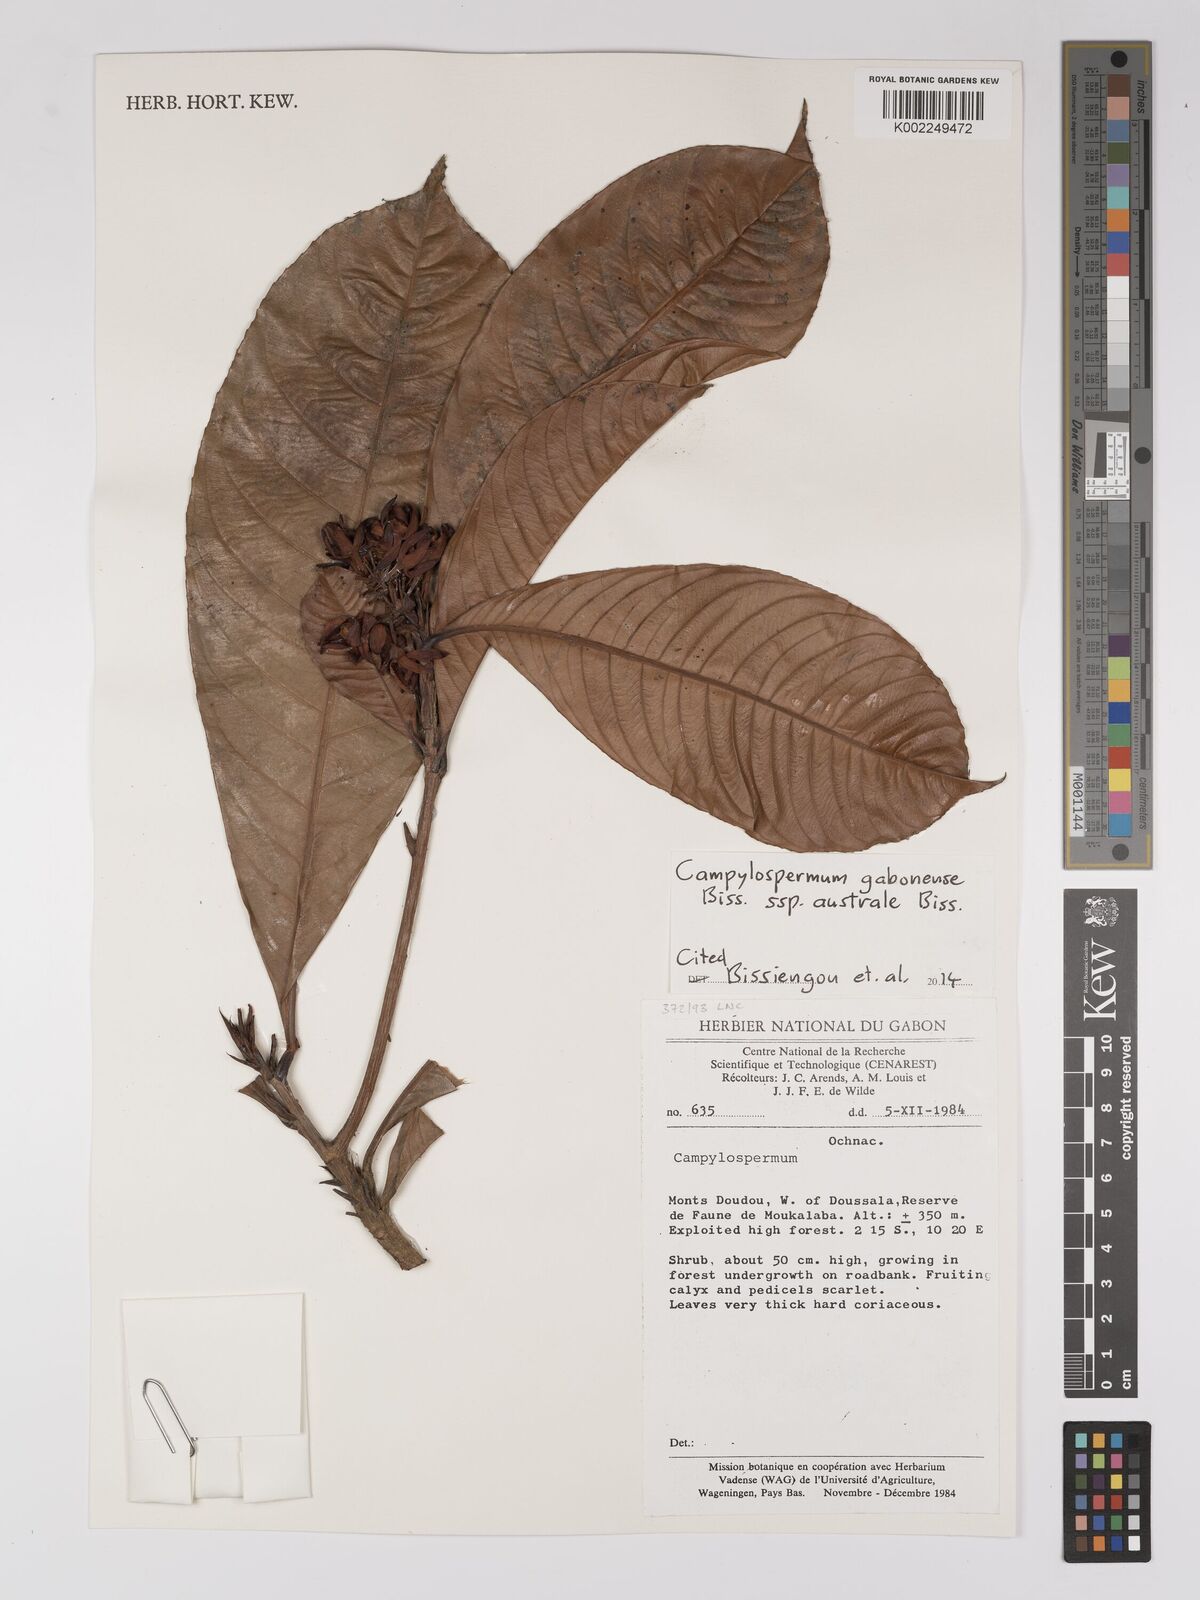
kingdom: Plantae
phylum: Tracheophyta
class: Magnoliopsida
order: Malpighiales
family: Ochnaceae
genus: Campylospermum
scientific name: Campylospermum gabonense
